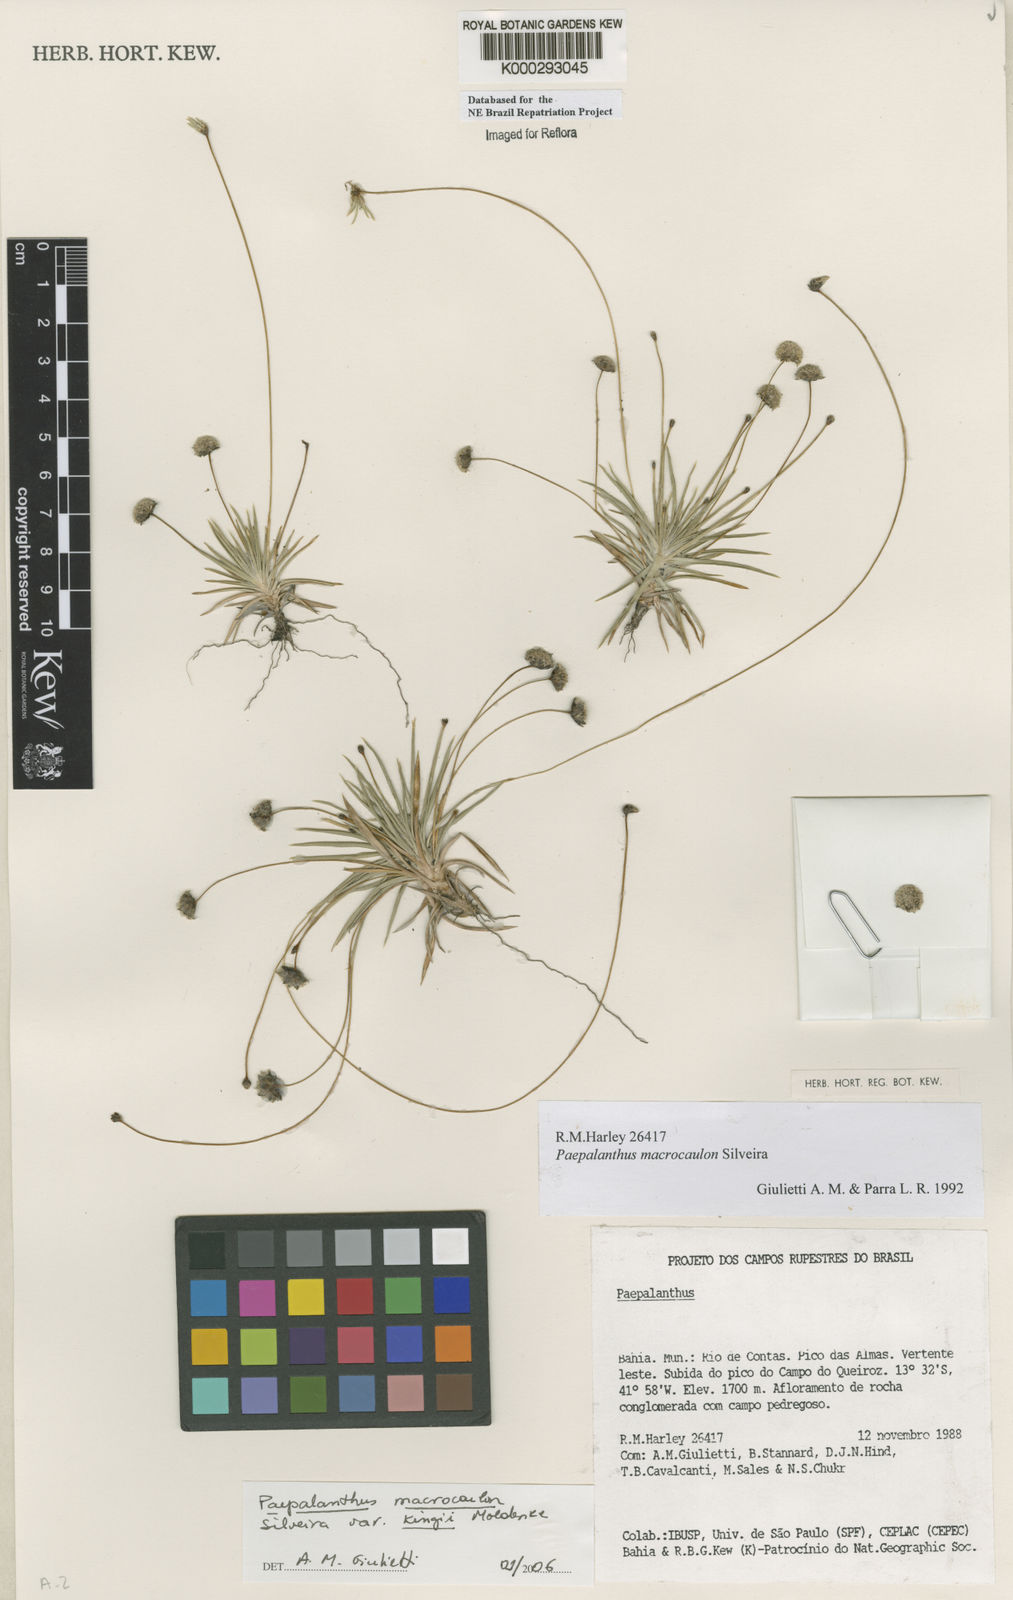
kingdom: Plantae
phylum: Tracheophyta
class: Liliopsida
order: Poales
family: Eriocaulaceae
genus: Paepalanthus
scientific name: Paepalanthus macrocaulon
